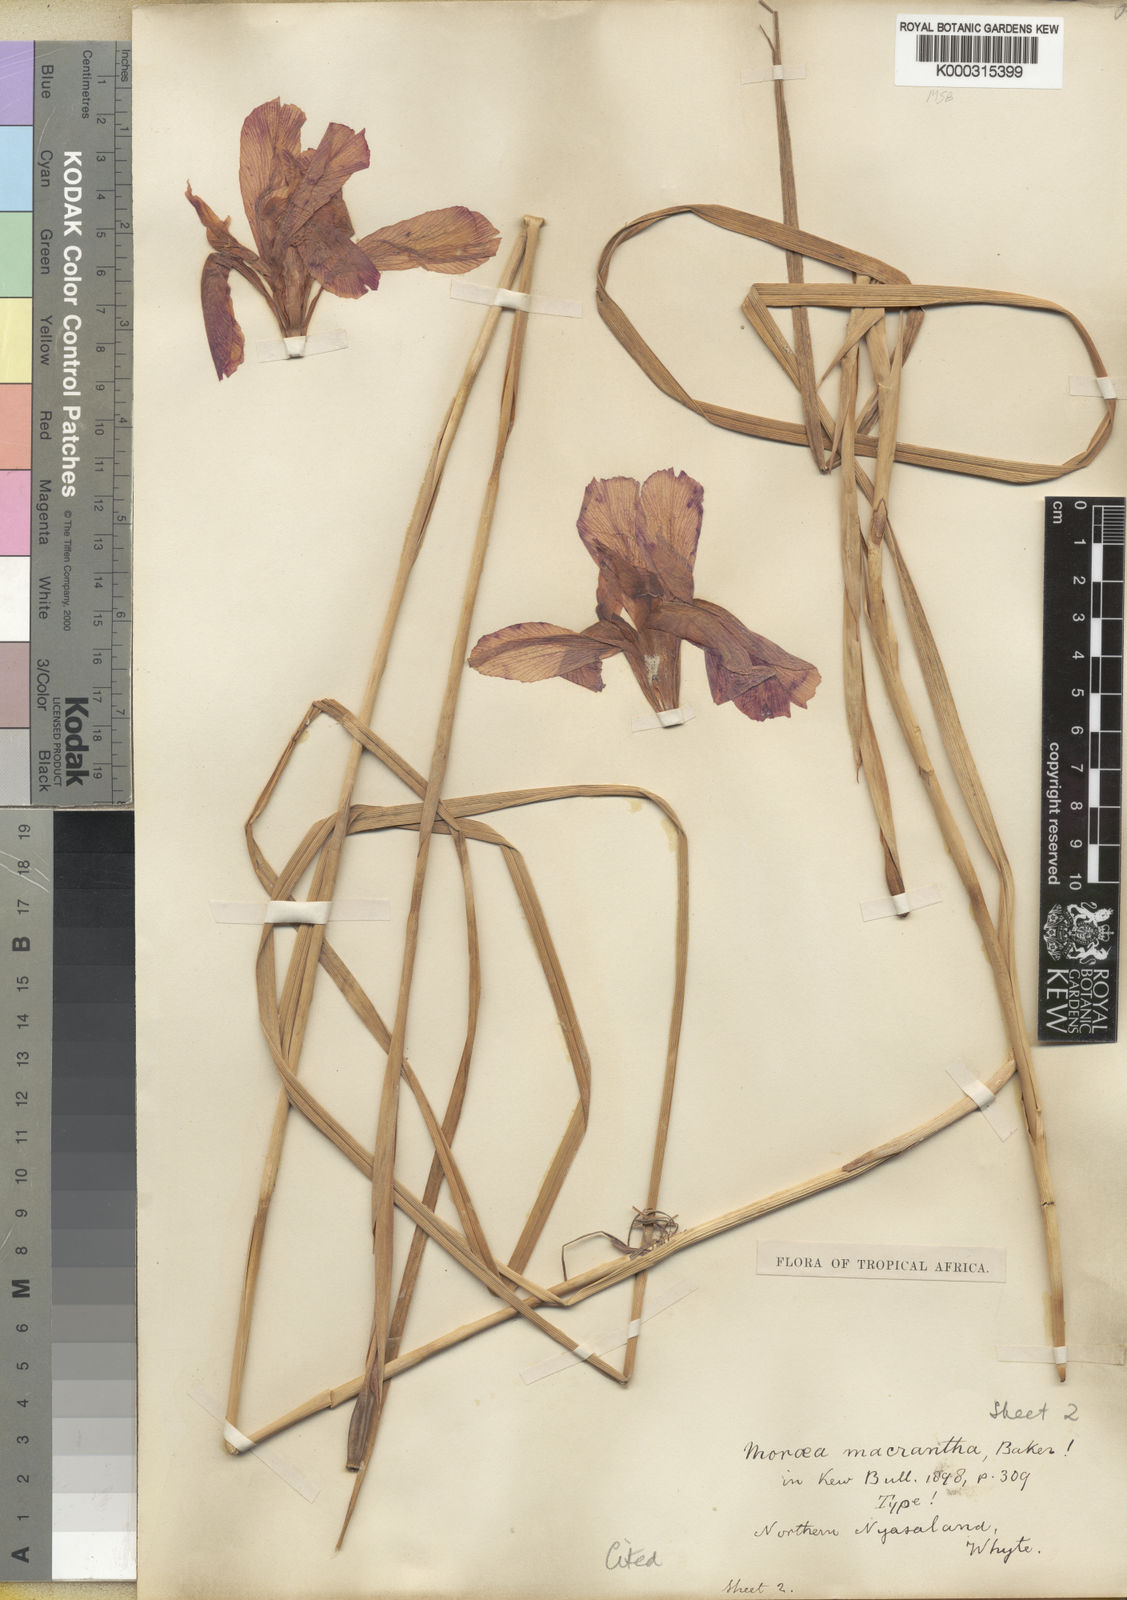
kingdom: Plantae
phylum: Tracheophyta
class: Liliopsida
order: Asparagales
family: Iridaceae
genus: Moraea
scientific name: Moraea macrantha
